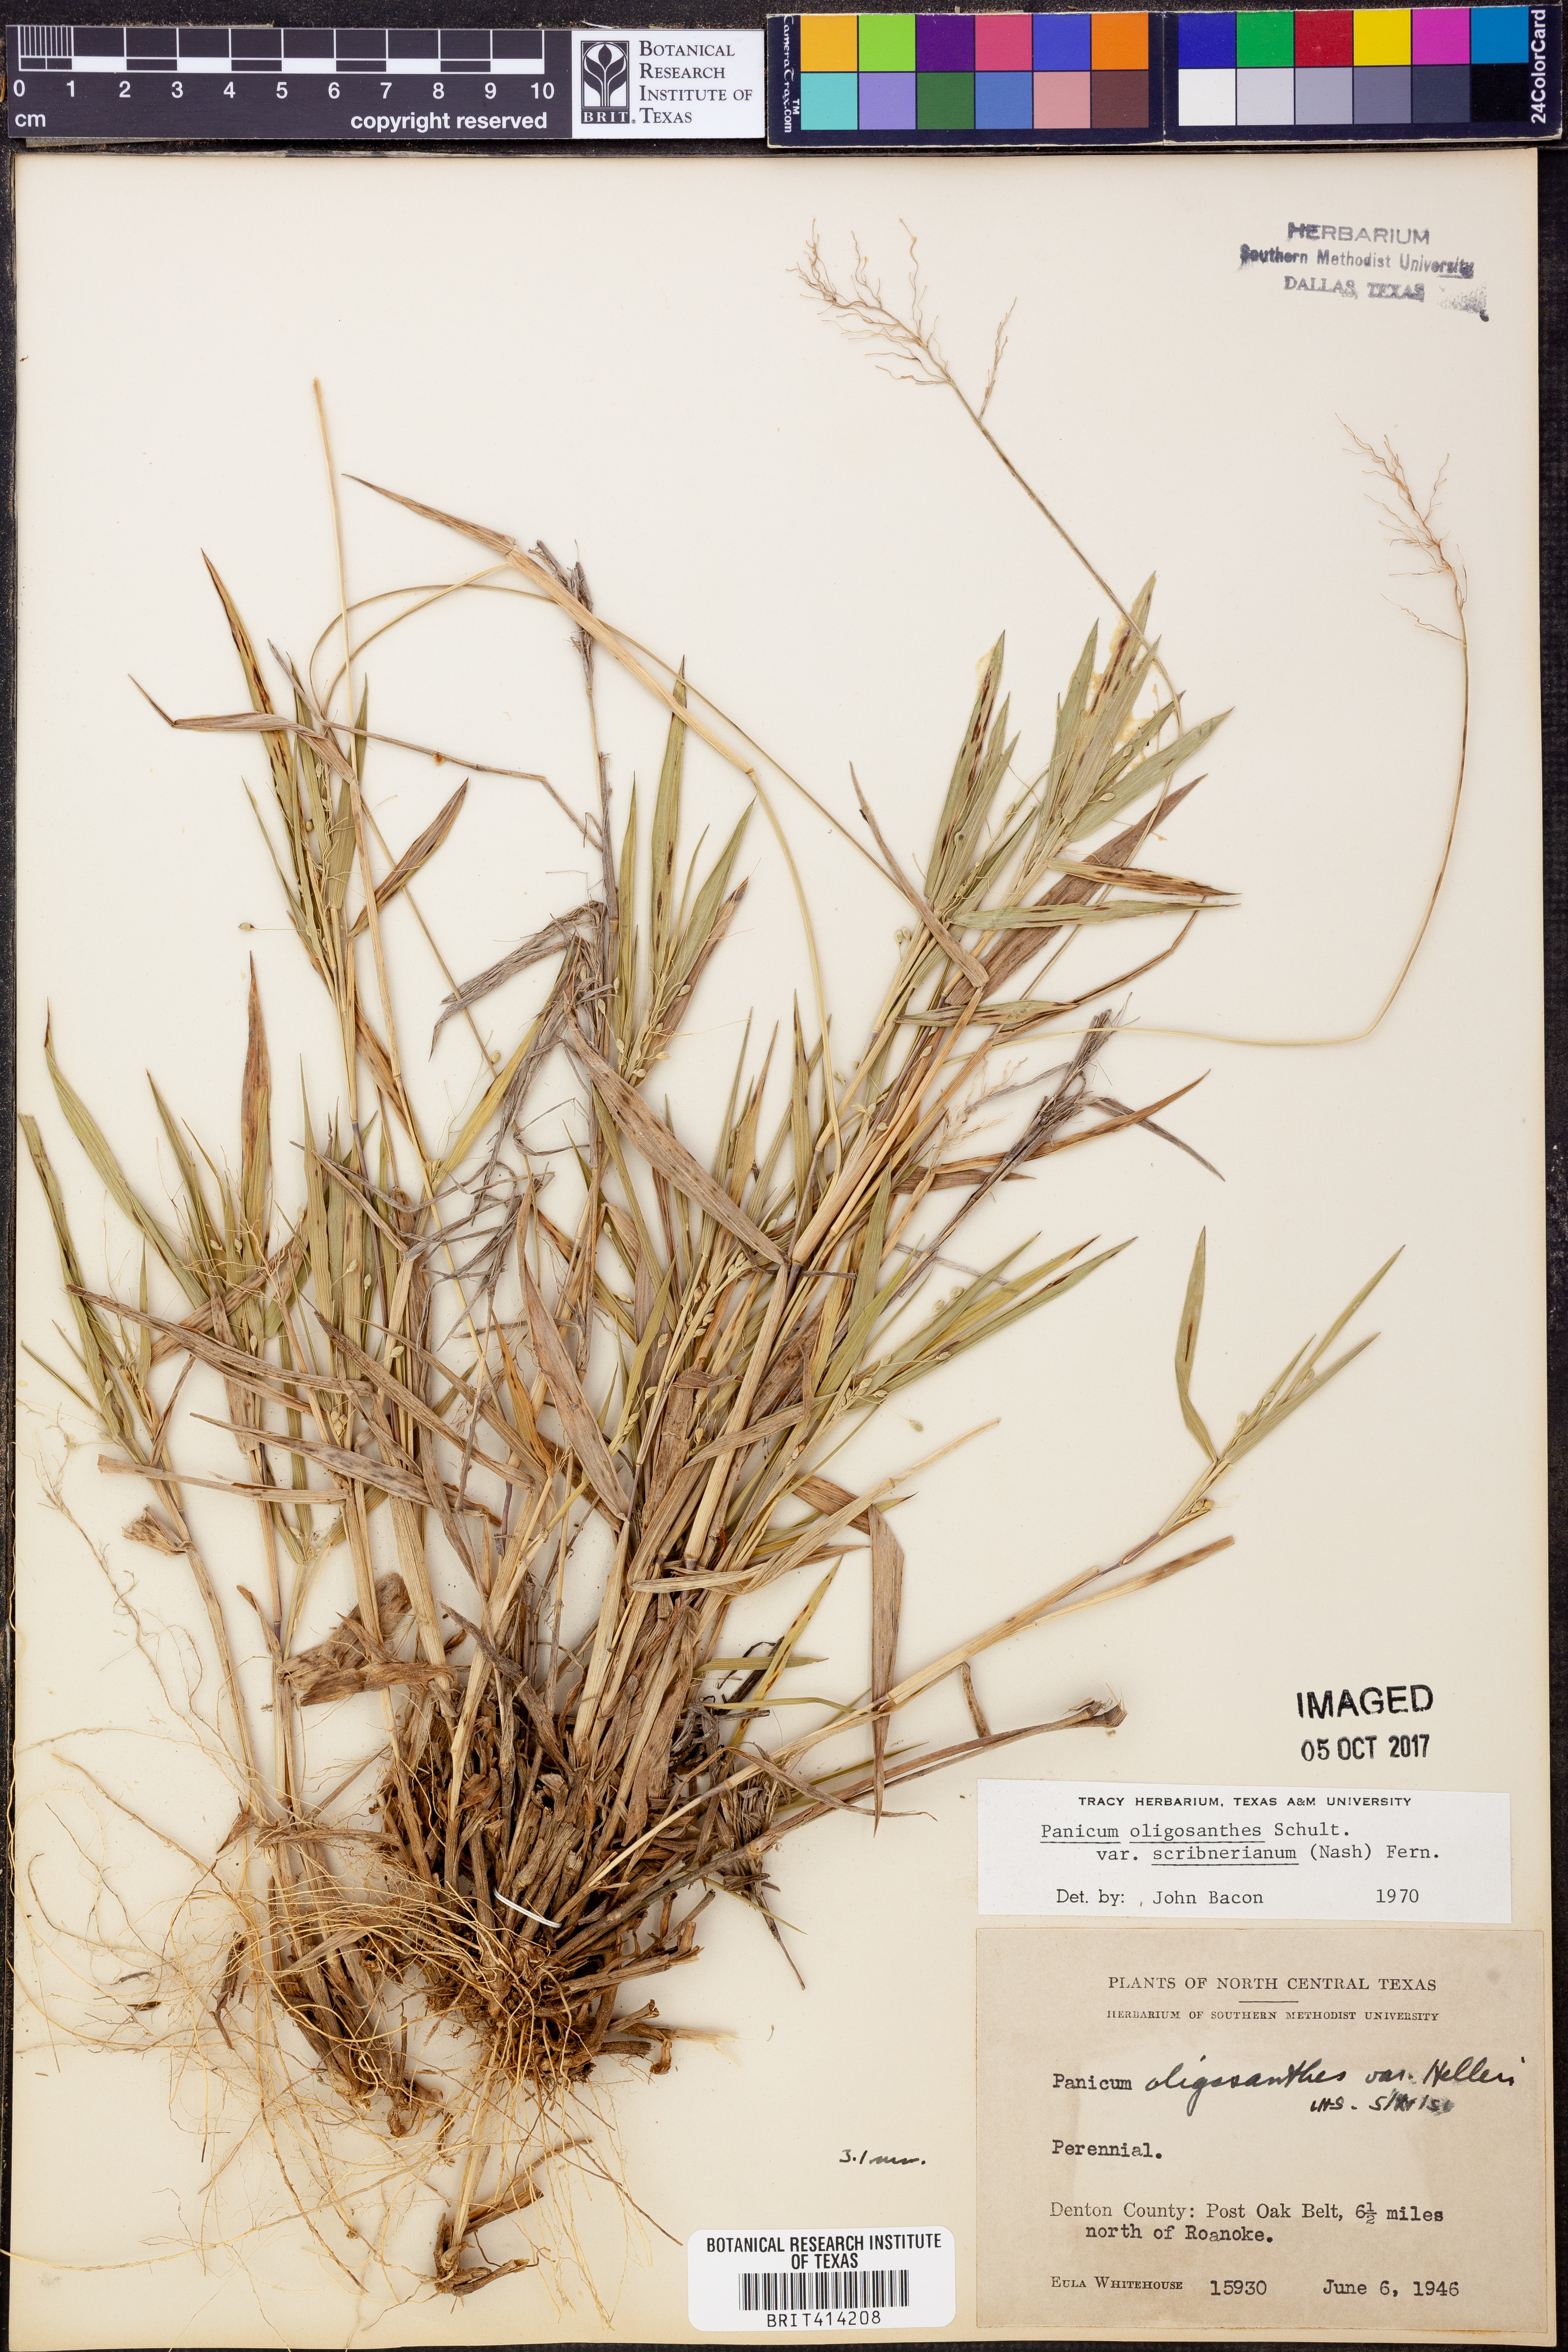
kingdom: Plantae
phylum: Tracheophyta
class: Liliopsida
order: Poales
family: Poaceae
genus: Dichanthelium
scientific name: Dichanthelium scribnerianum
